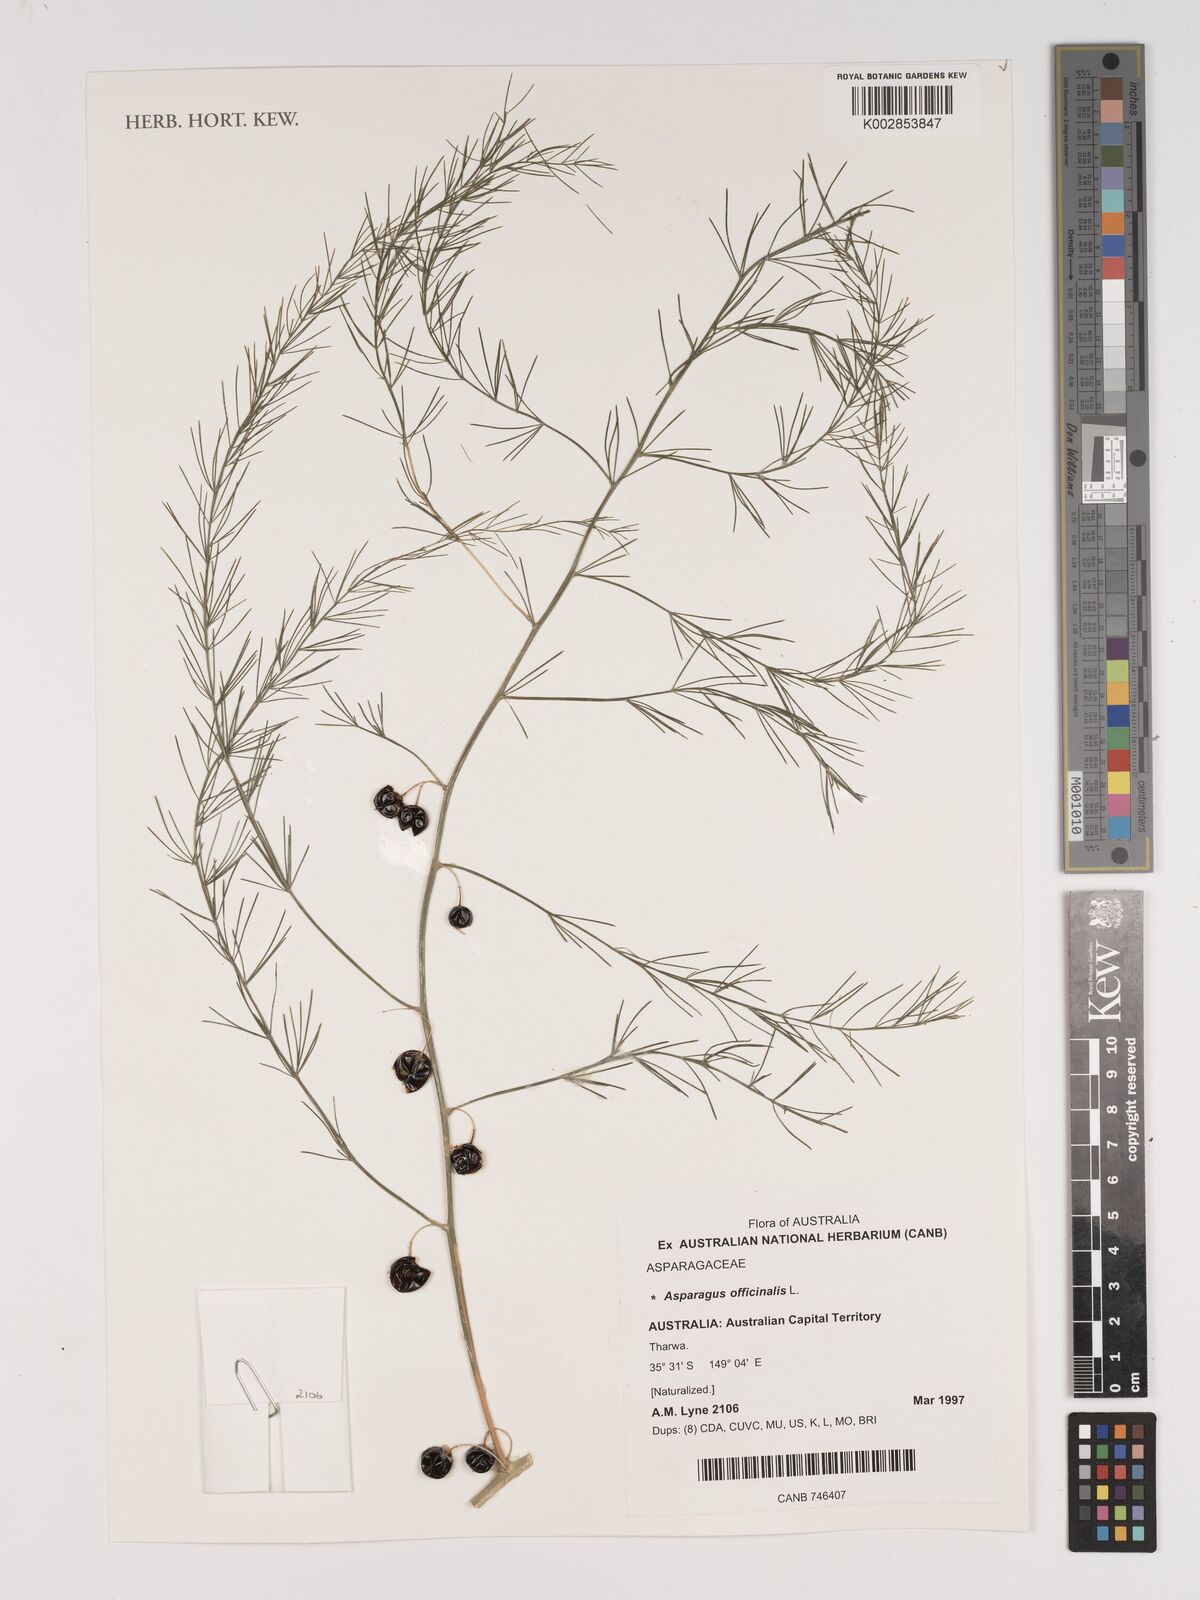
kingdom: Plantae
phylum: Tracheophyta
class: Liliopsida
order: Asparagales
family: Asparagaceae
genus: Asparagus
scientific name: Asparagus officinalis
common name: Garden asparagus
